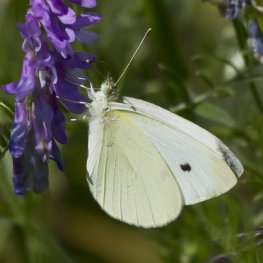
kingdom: Animalia
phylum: Arthropoda
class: Insecta
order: Lepidoptera
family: Pieridae
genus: Pieris
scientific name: Pieris rapae
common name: Cabbage White
